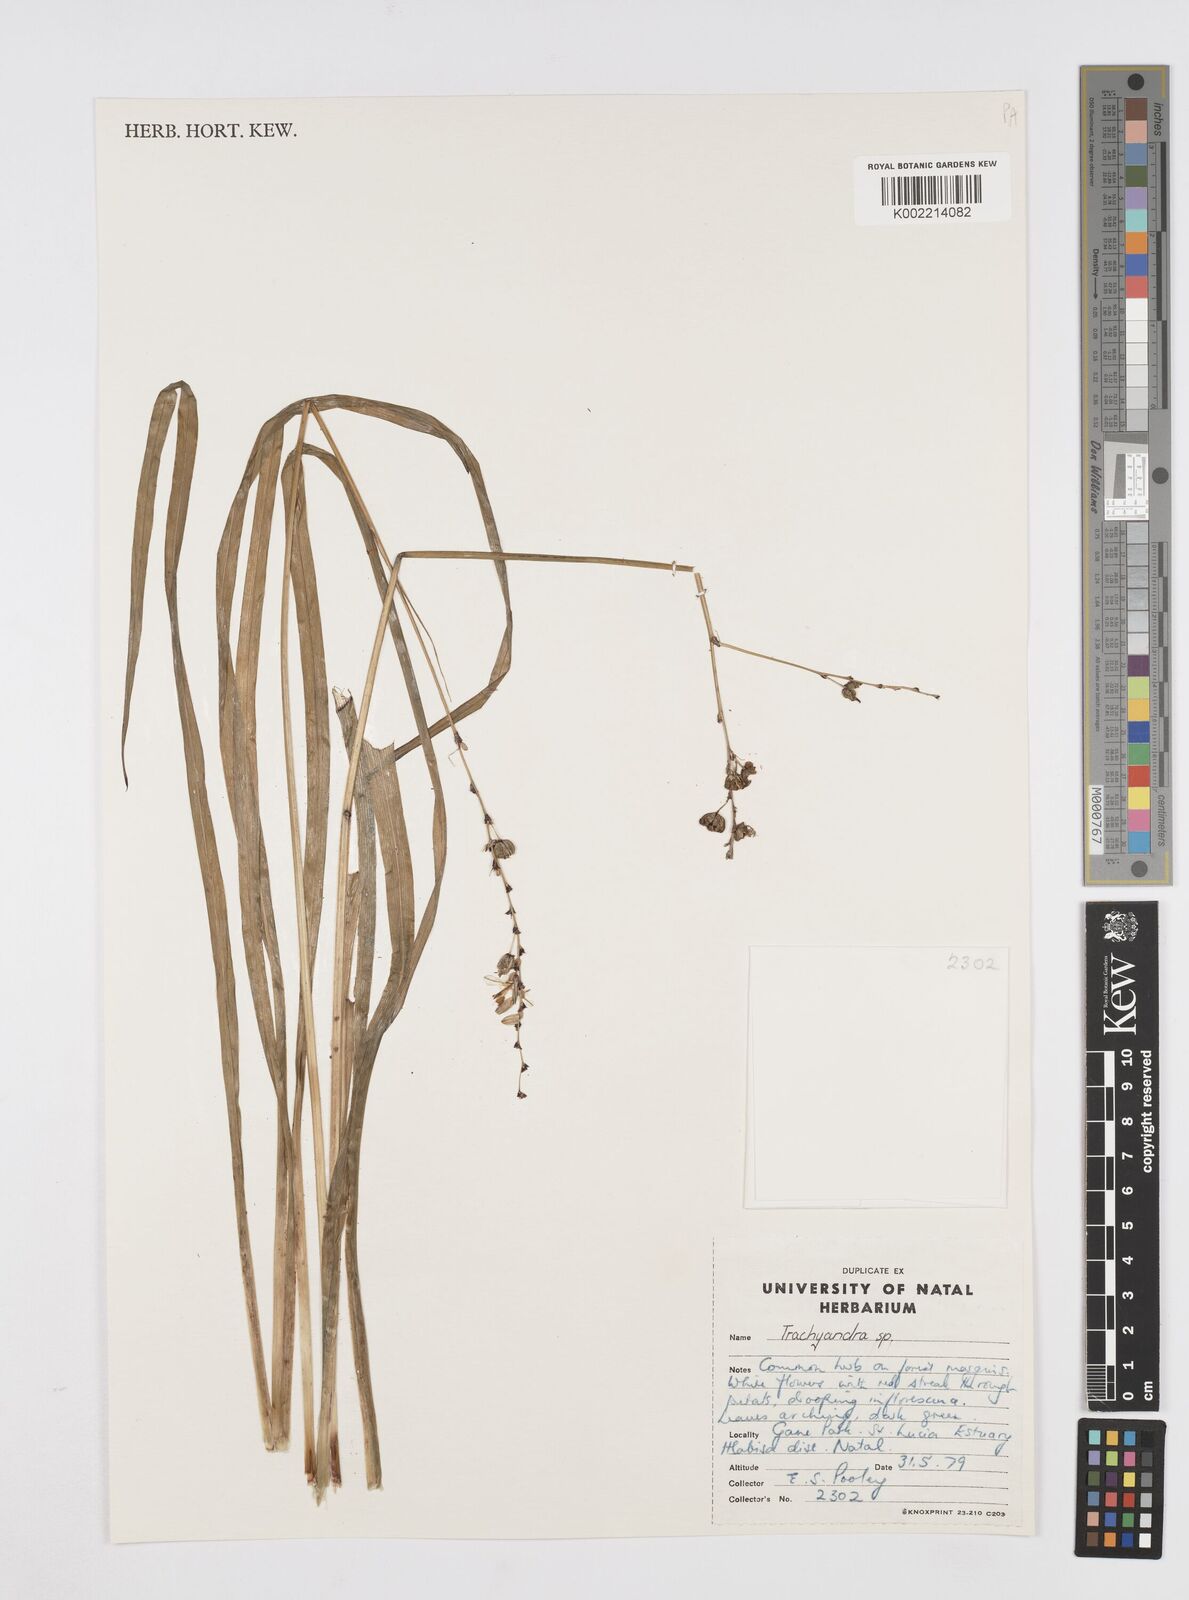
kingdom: Plantae
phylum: Tracheophyta
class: Liliopsida
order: Asparagales
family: Asphodelaceae
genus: Trachyandra
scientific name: Trachyandra
